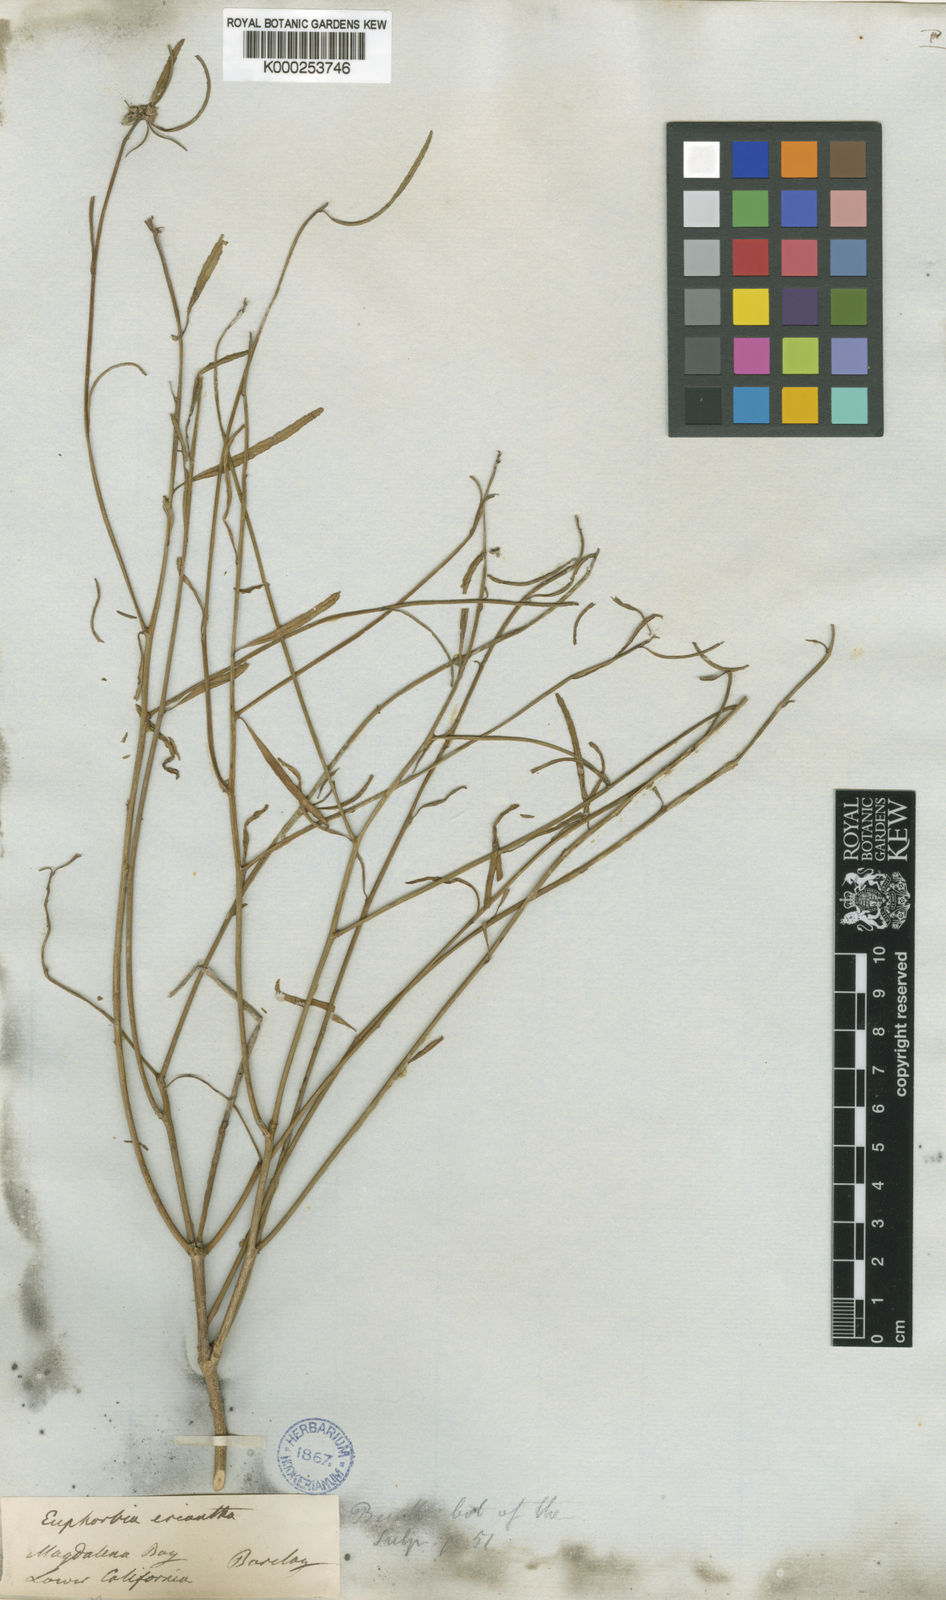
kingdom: Plantae
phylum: Tracheophyta
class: Magnoliopsida
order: Malpighiales
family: Euphorbiaceae
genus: Euphorbia
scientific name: Euphorbia eriantha
